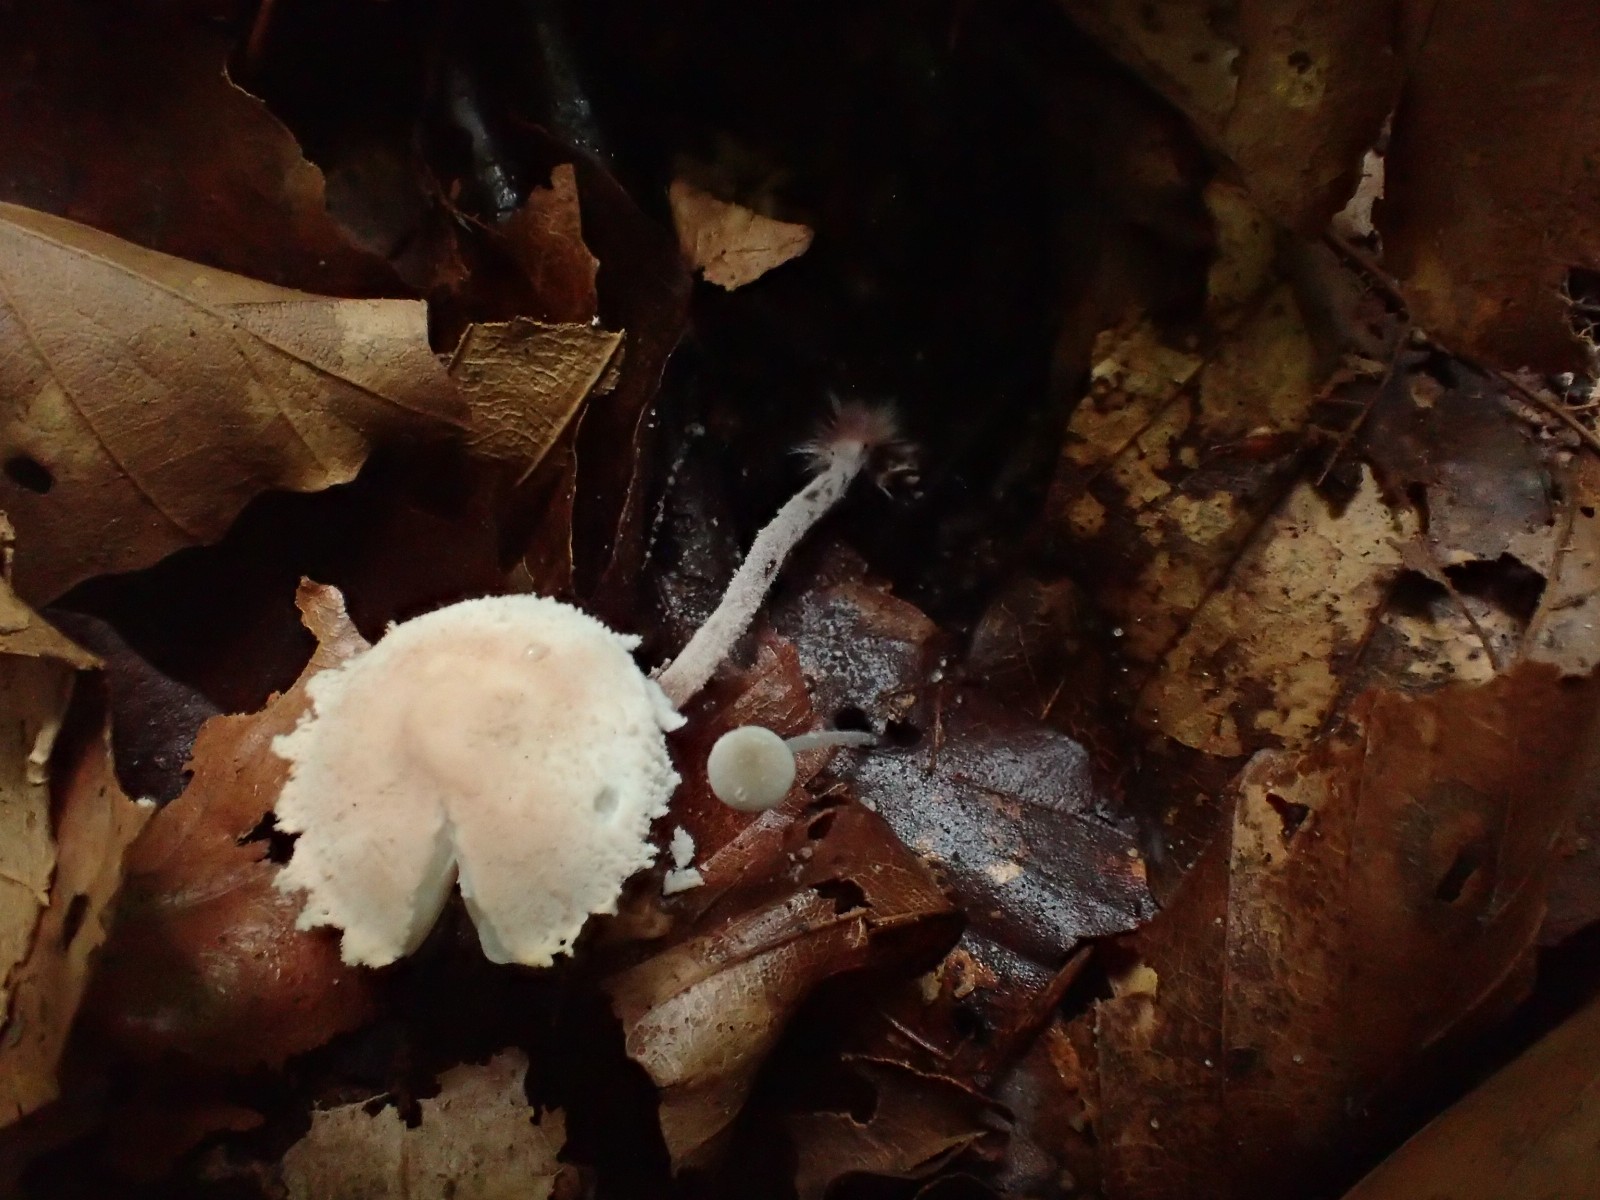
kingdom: Fungi
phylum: Basidiomycota
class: Agaricomycetes
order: Agaricales
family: Agaricaceae
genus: Cystolepiota
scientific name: Cystolepiota seminuda
